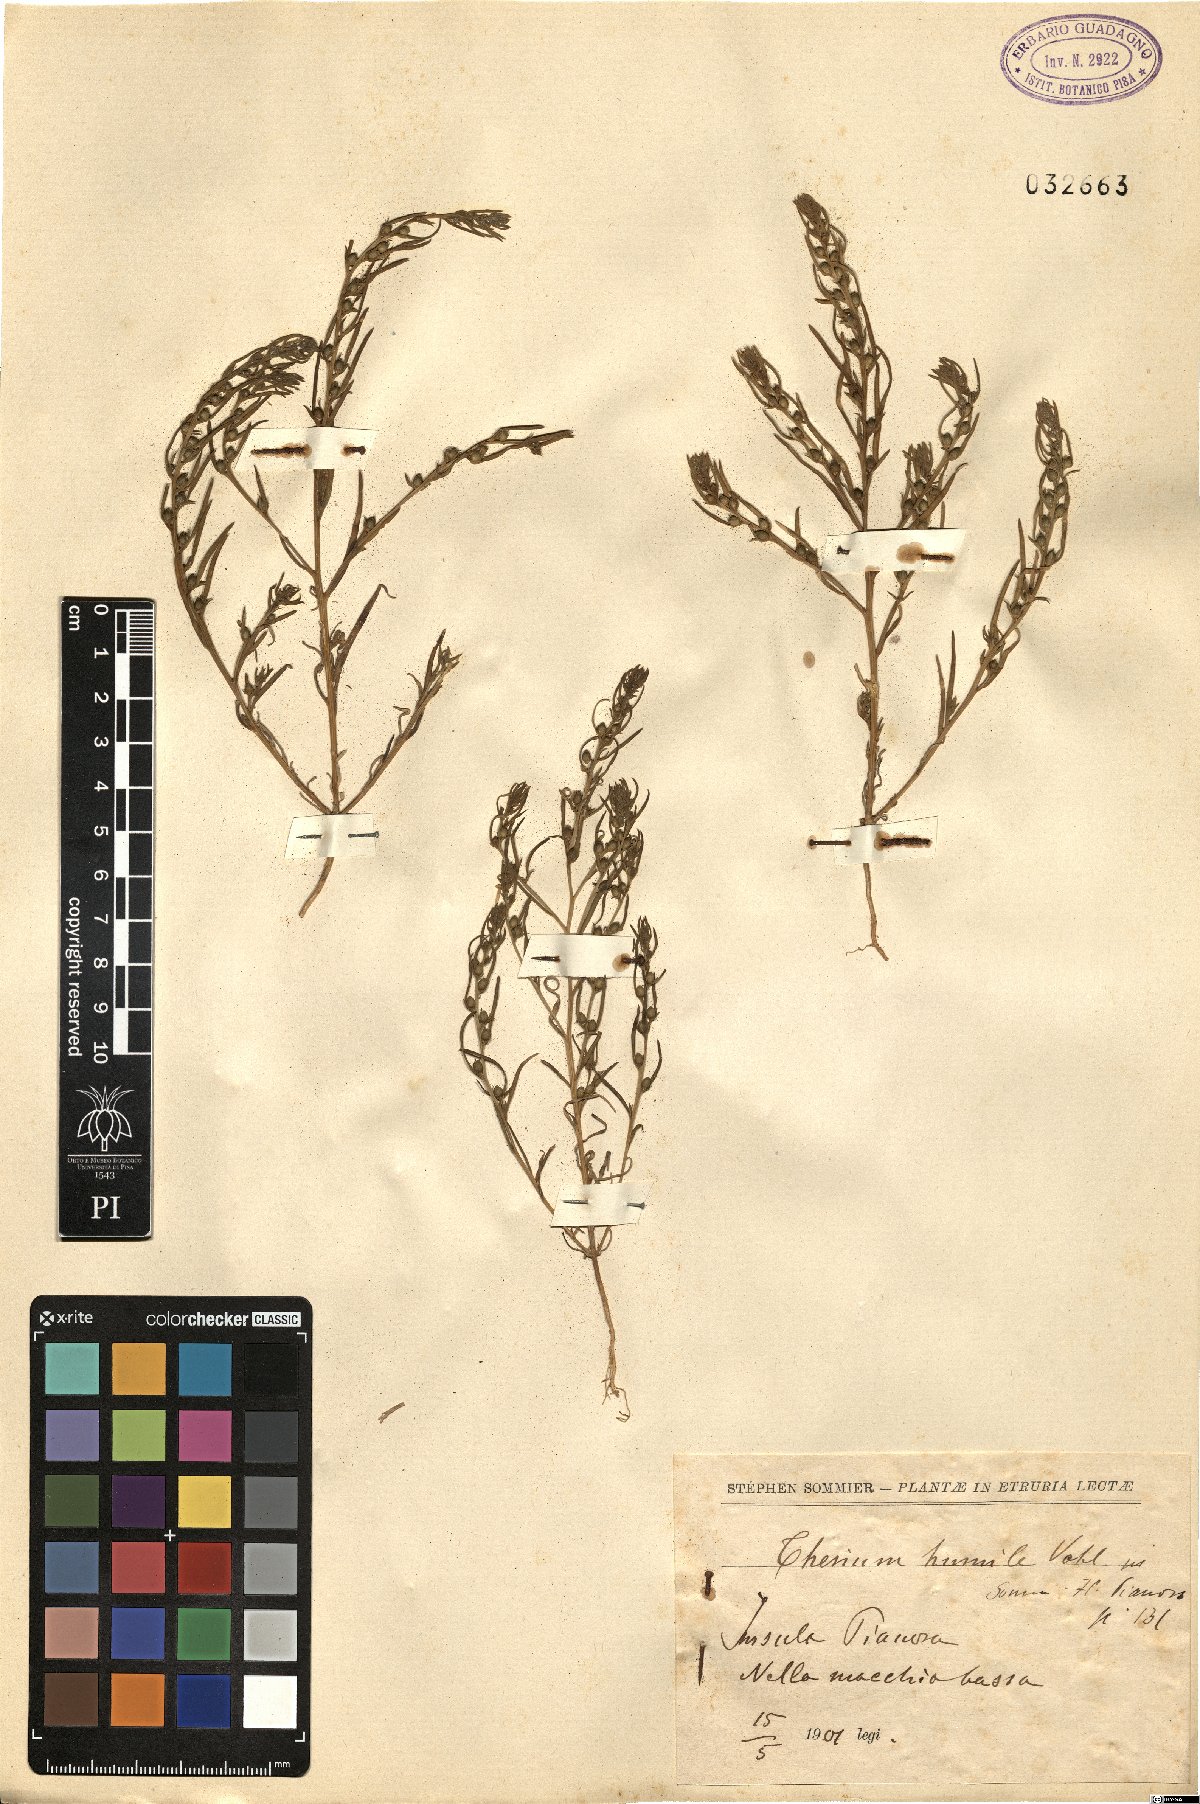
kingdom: Plantae
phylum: Tracheophyta
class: Magnoliopsida
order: Santalales
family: Thesiaceae
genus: Thesium
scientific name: Thesium humile
